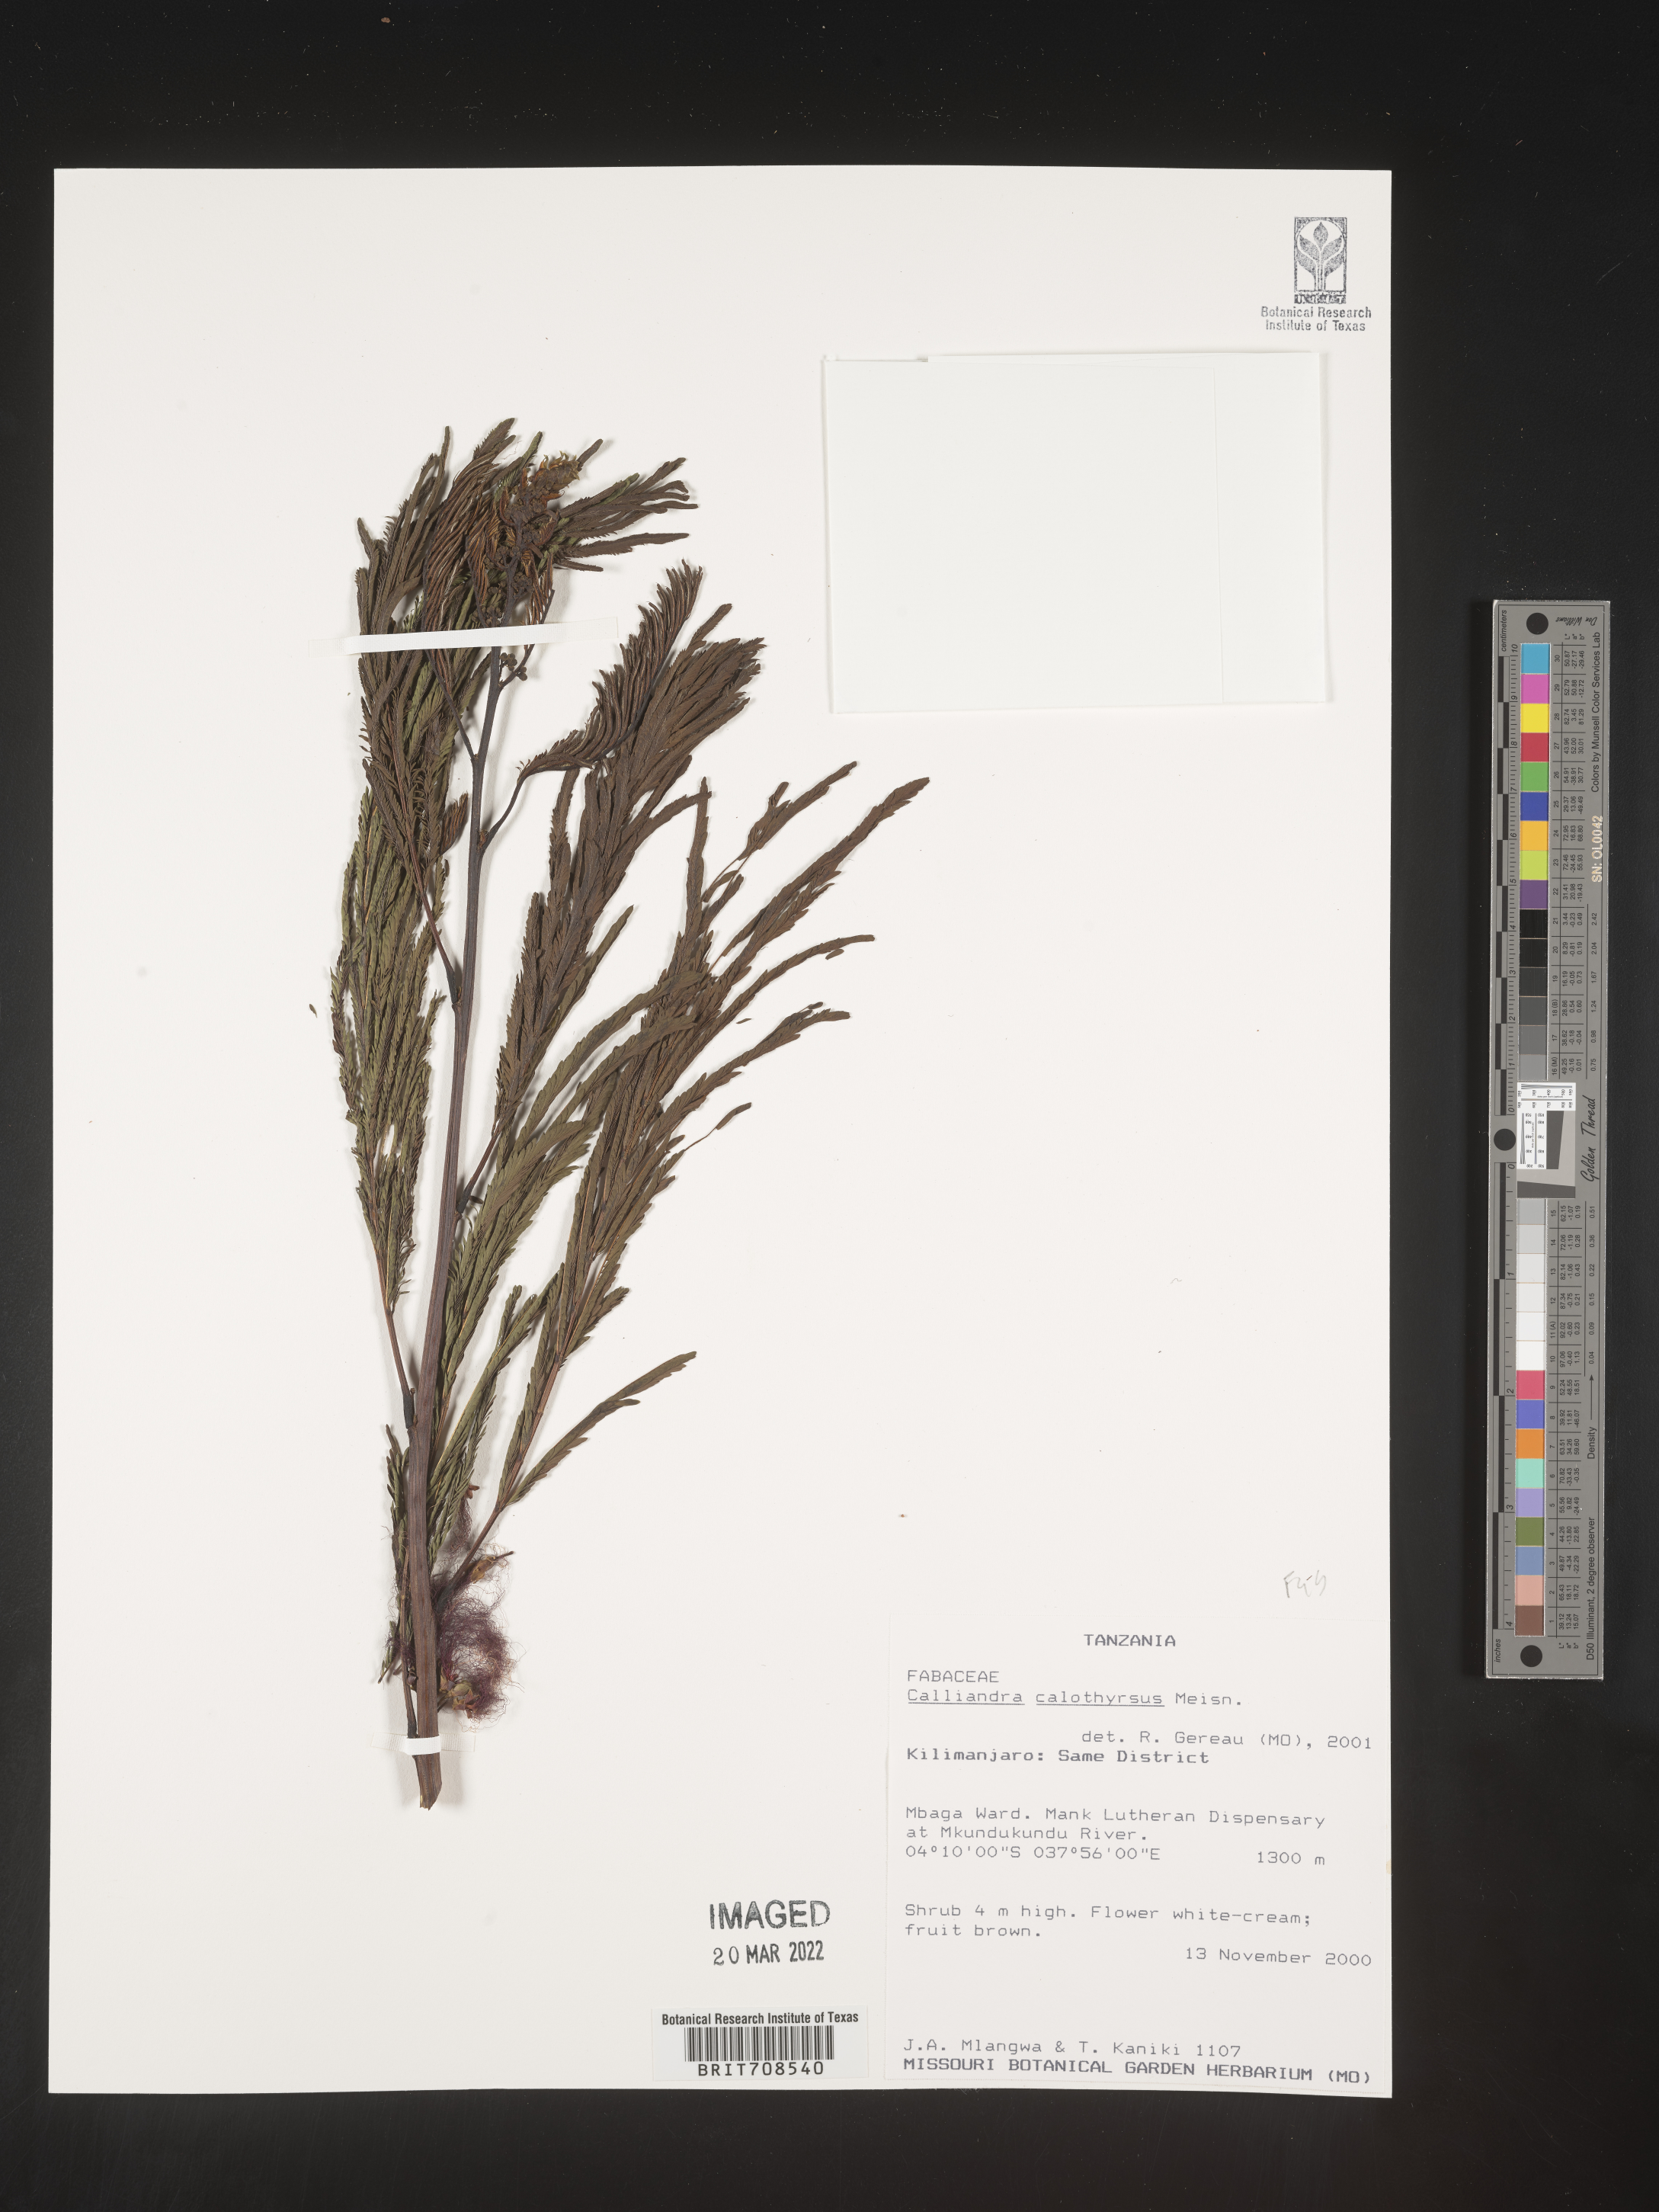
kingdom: Plantae
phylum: Tracheophyta
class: Magnoliopsida
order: Fabales
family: Fabaceae
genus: Calliandra
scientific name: Calliandra
